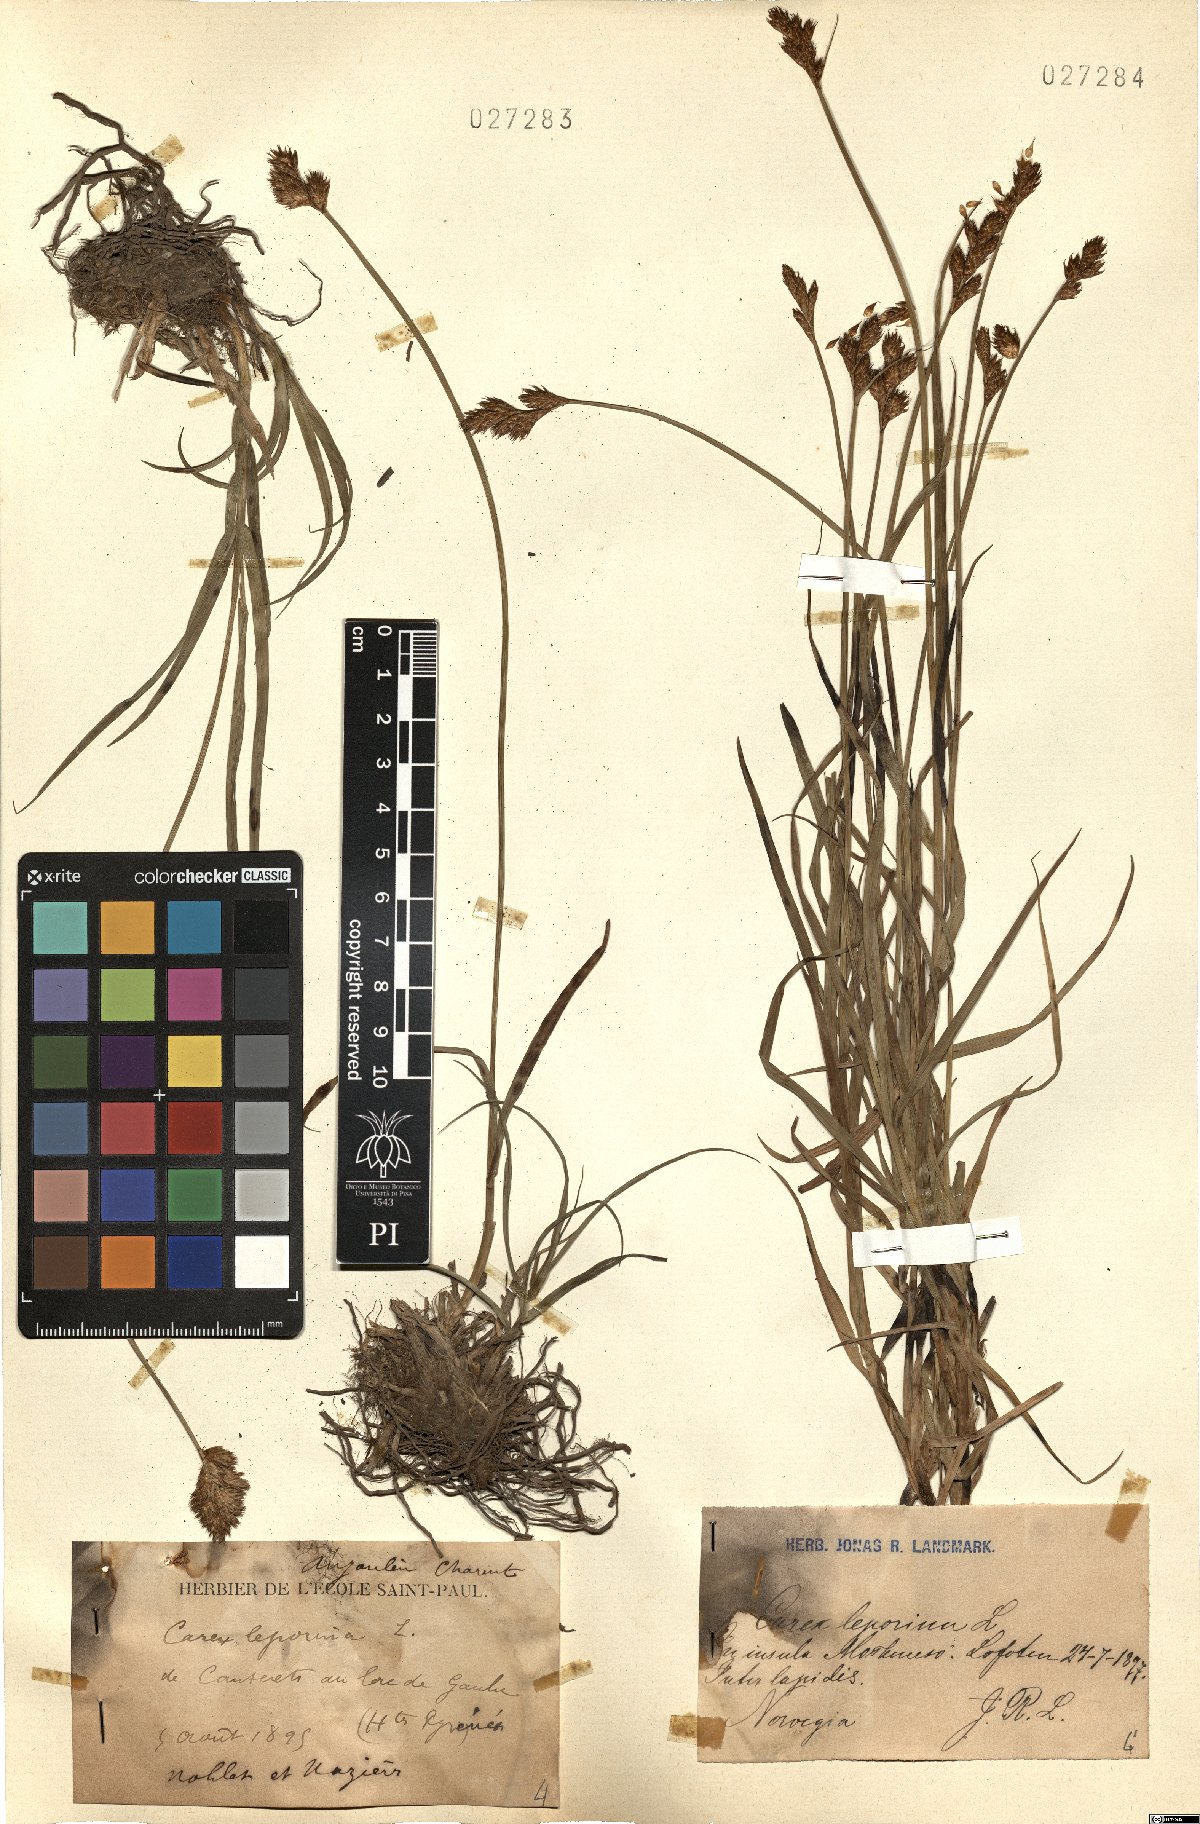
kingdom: Plantae
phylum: Tracheophyta
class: Liliopsida
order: Poales
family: Cyperaceae
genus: Carex
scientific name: Carex leporina
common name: Oval sedge
